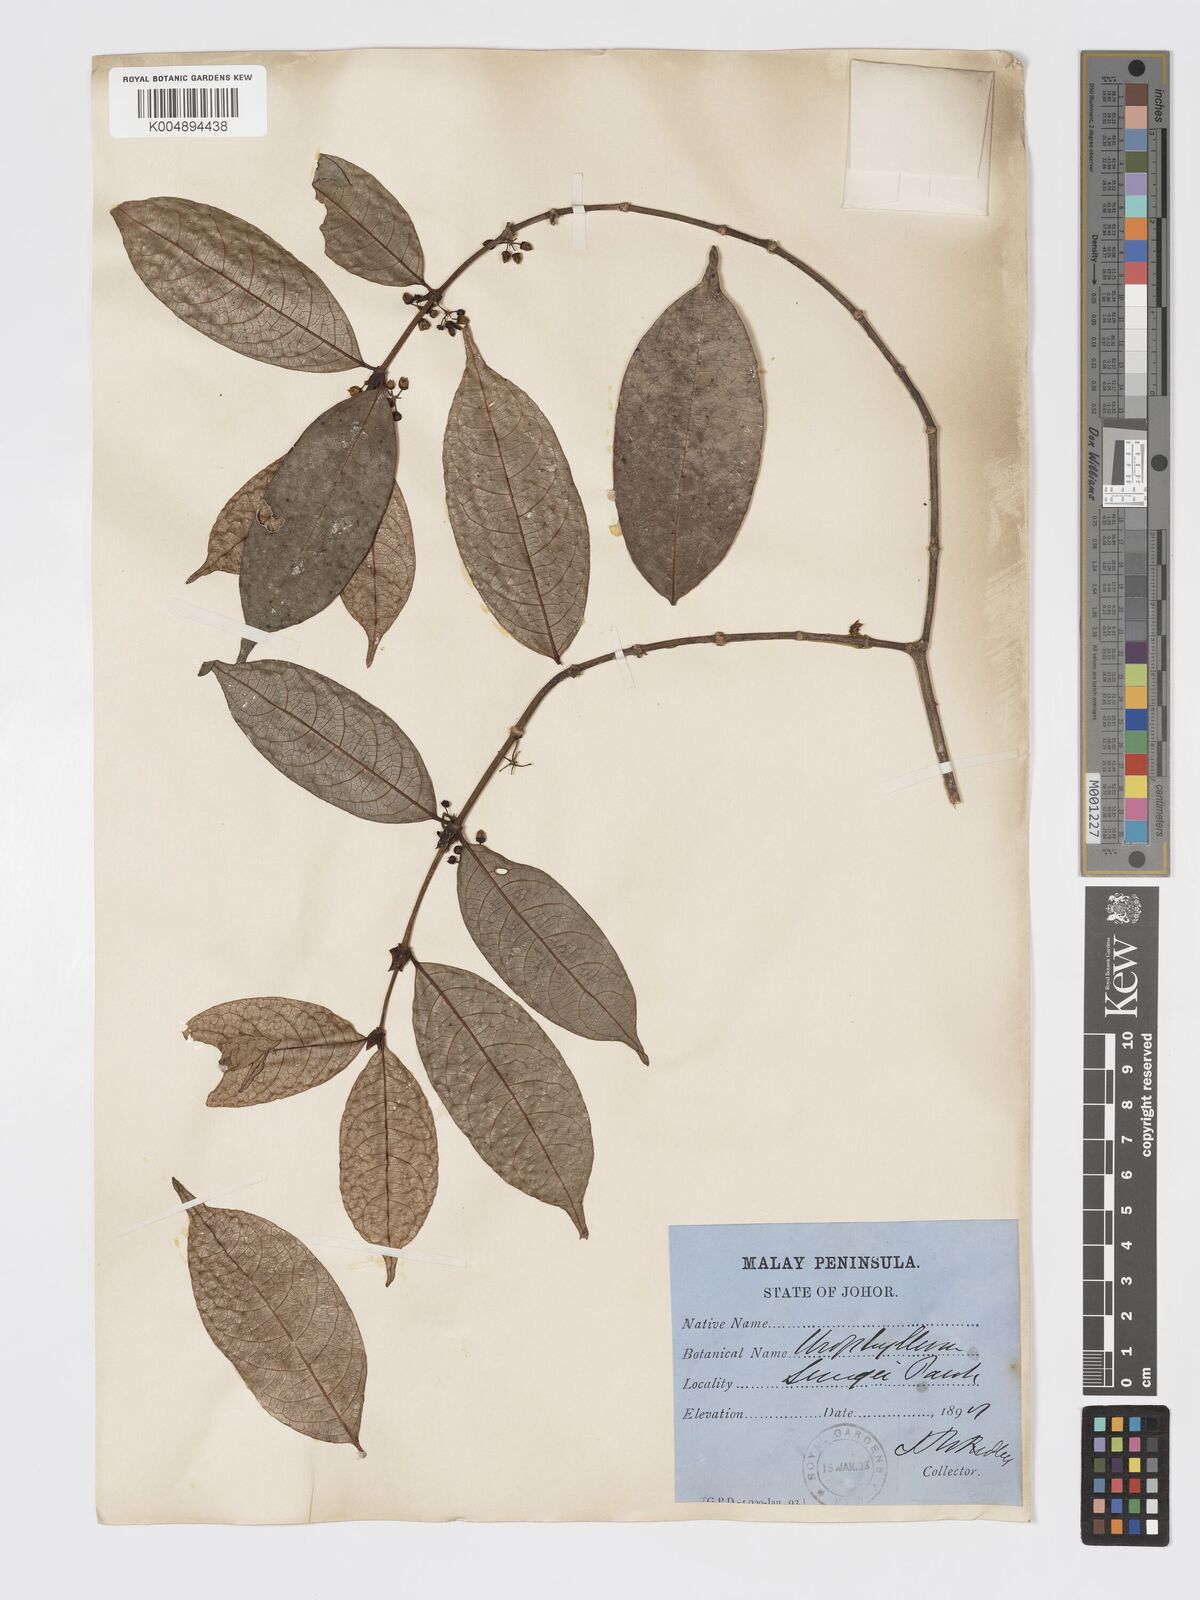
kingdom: Plantae
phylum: Tracheophyta
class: Magnoliopsida
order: Gentianales
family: Rubiaceae
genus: Urophyllum
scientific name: Urophyllum griffithianum
